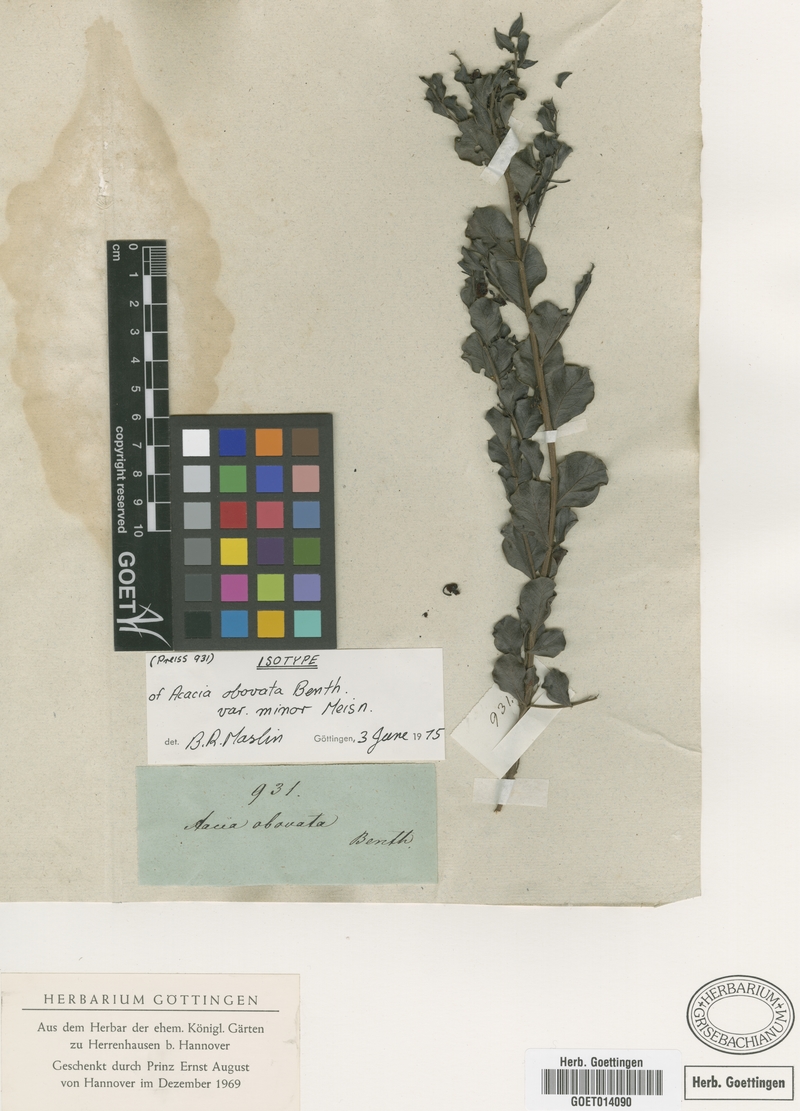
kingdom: Plantae
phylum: Tracheophyta
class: Magnoliopsida
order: Fabales
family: Fabaceae
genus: Acacia
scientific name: Acacia obovata
